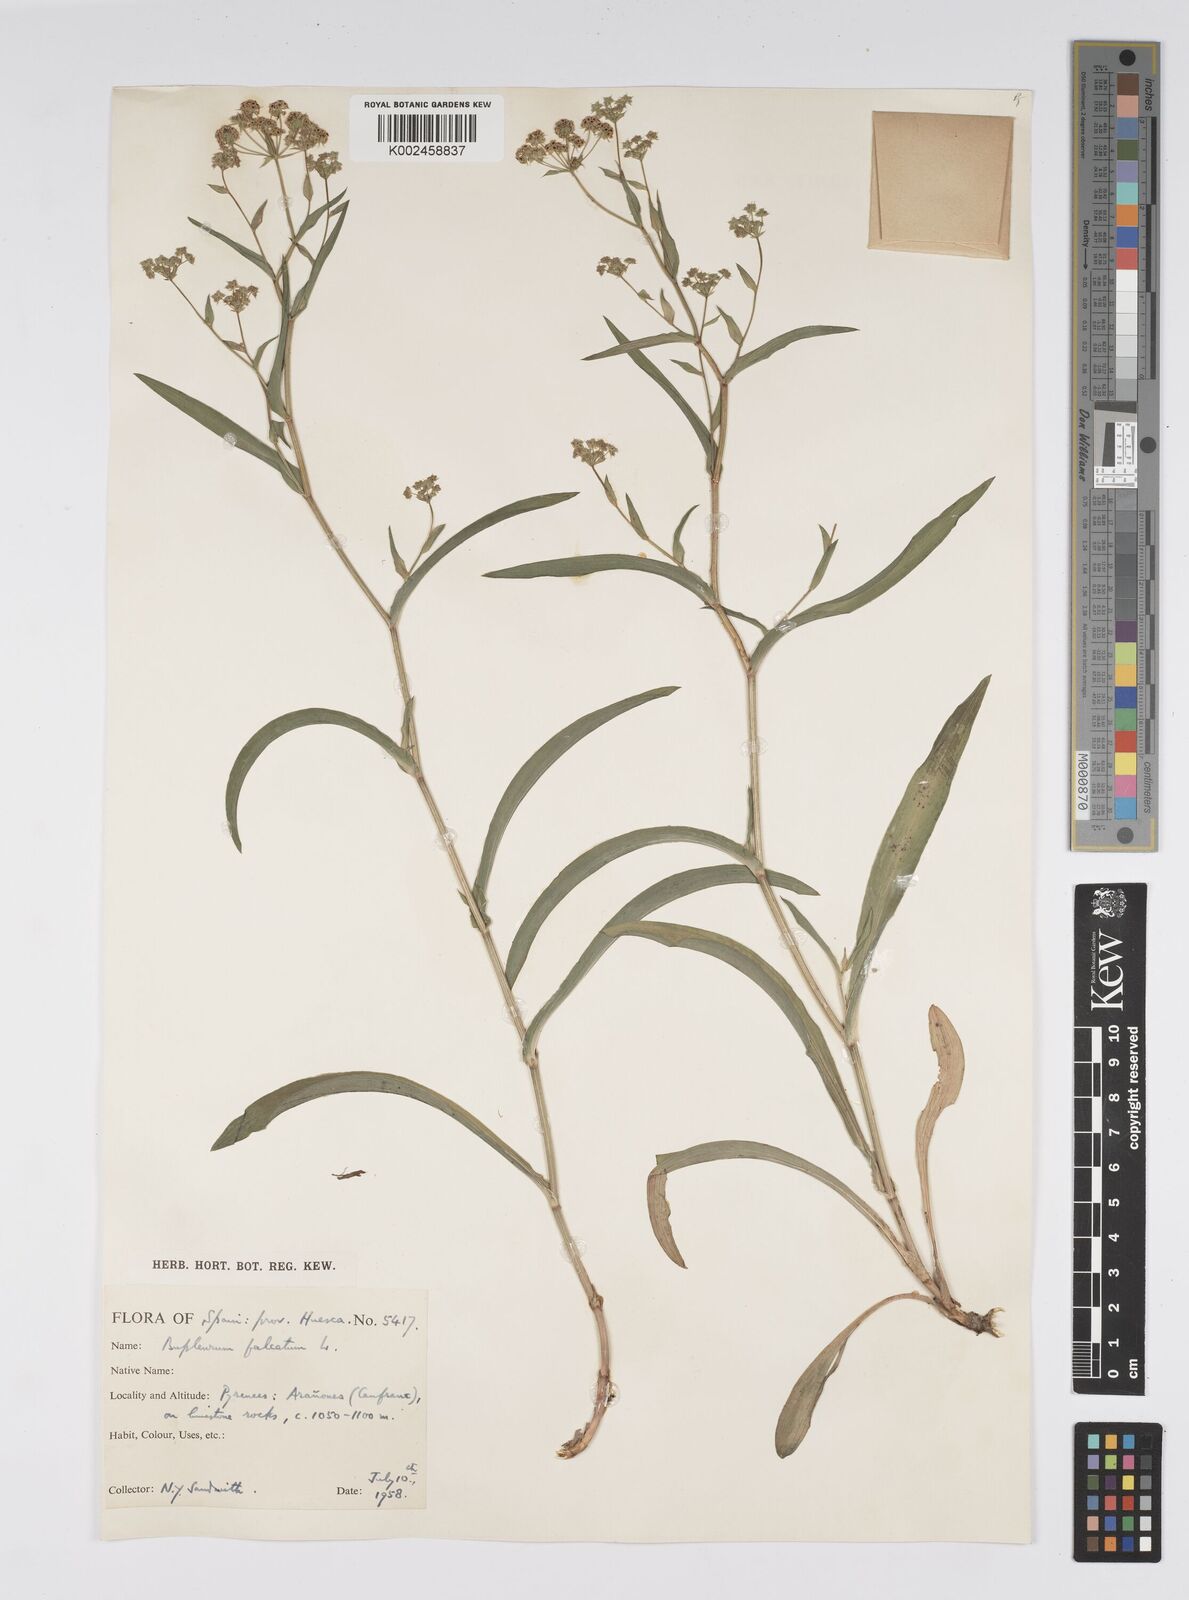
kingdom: Plantae
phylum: Tracheophyta
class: Magnoliopsida
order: Apiales
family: Apiaceae
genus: Bupleurum
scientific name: Bupleurum falcatum
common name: Sickle-leaved hare's-ear
